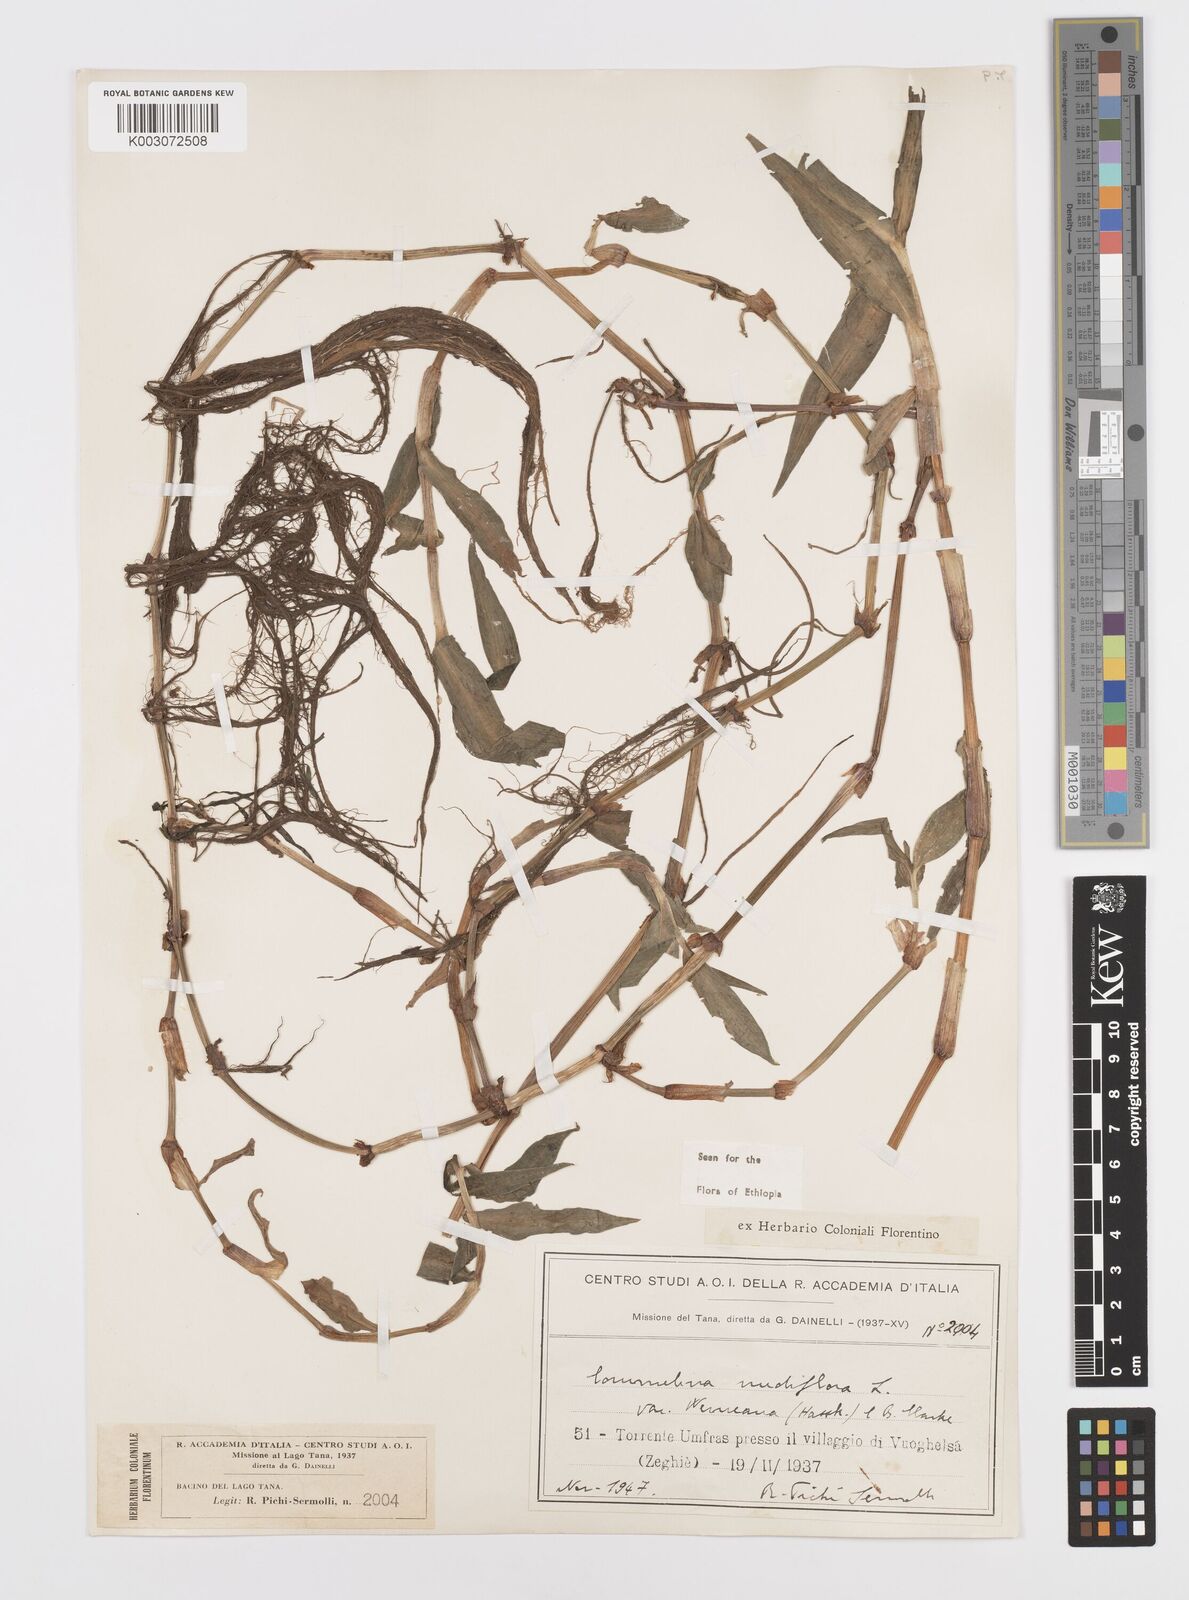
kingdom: Plantae
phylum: Tracheophyta
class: Liliopsida
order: Commelinales
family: Commelinaceae
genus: Commelina
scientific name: Commelina diffusa
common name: Climbing dayflower
